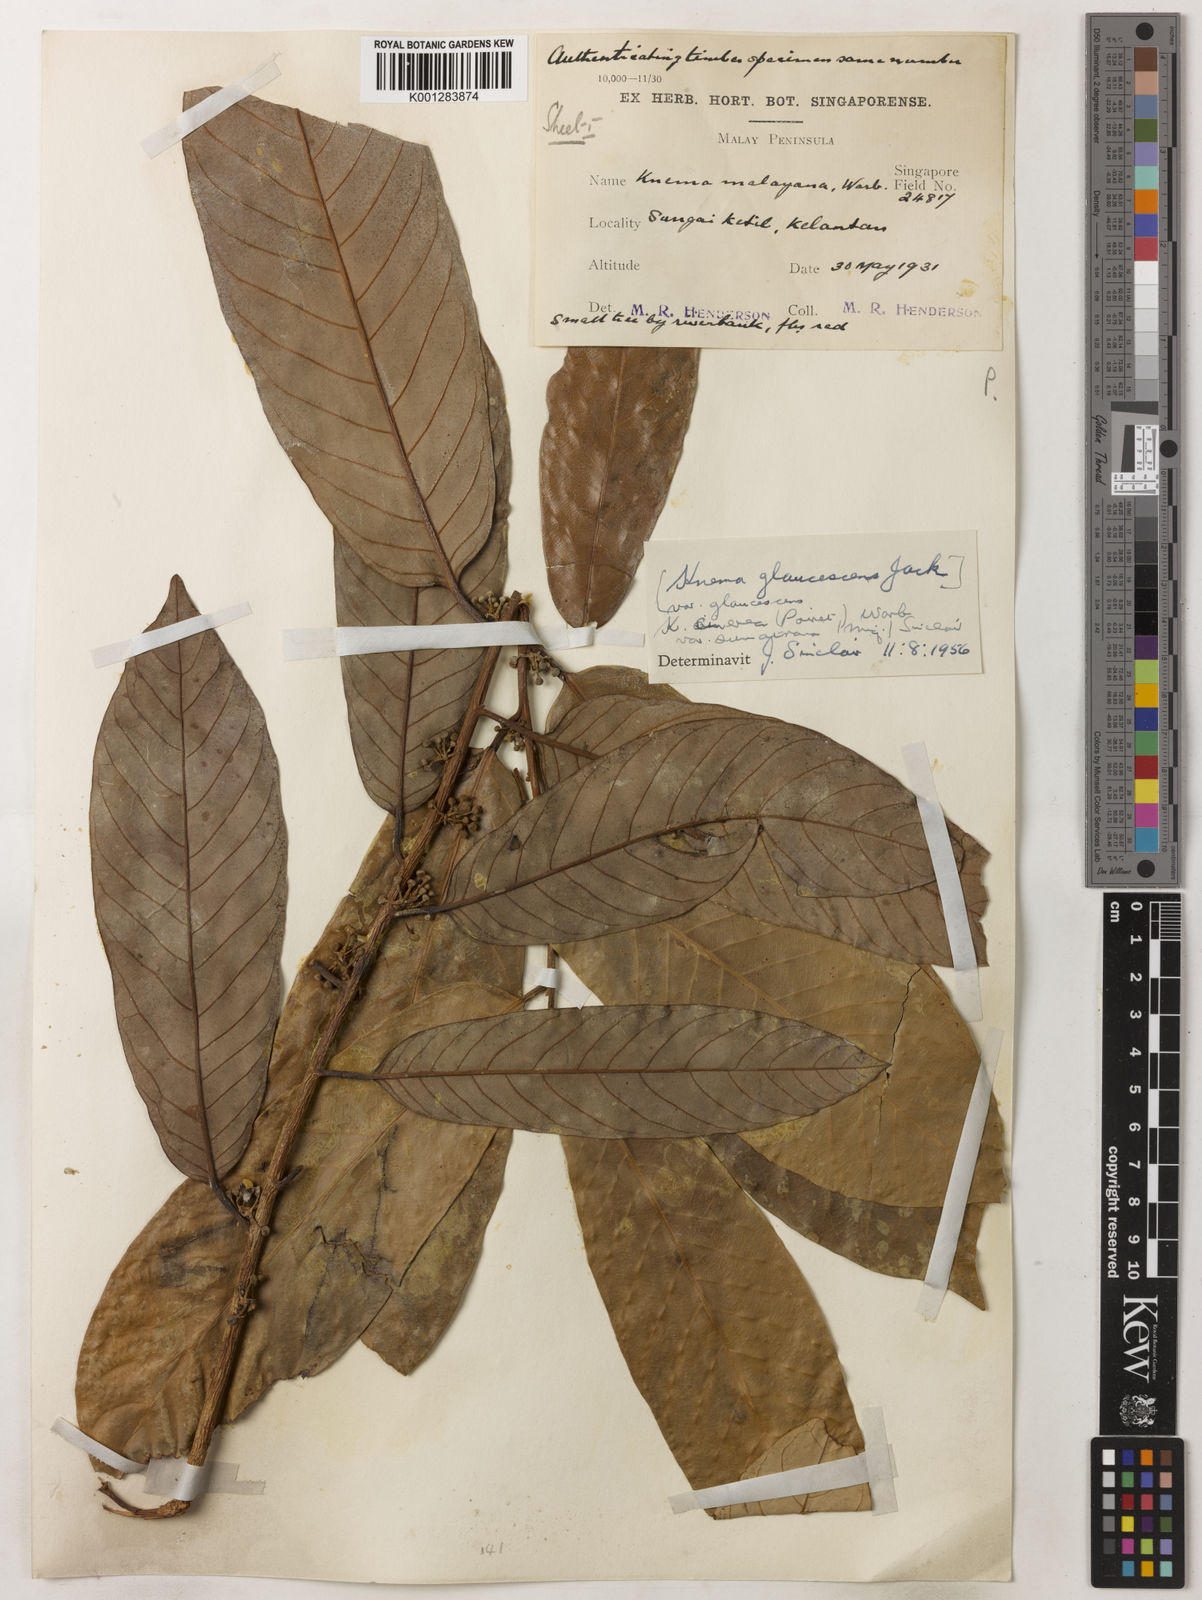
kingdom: Plantae
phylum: Tracheophyta
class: Magnoliopsida
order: Magnoliales
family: Myristicaceae
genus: Knema
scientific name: Knema
